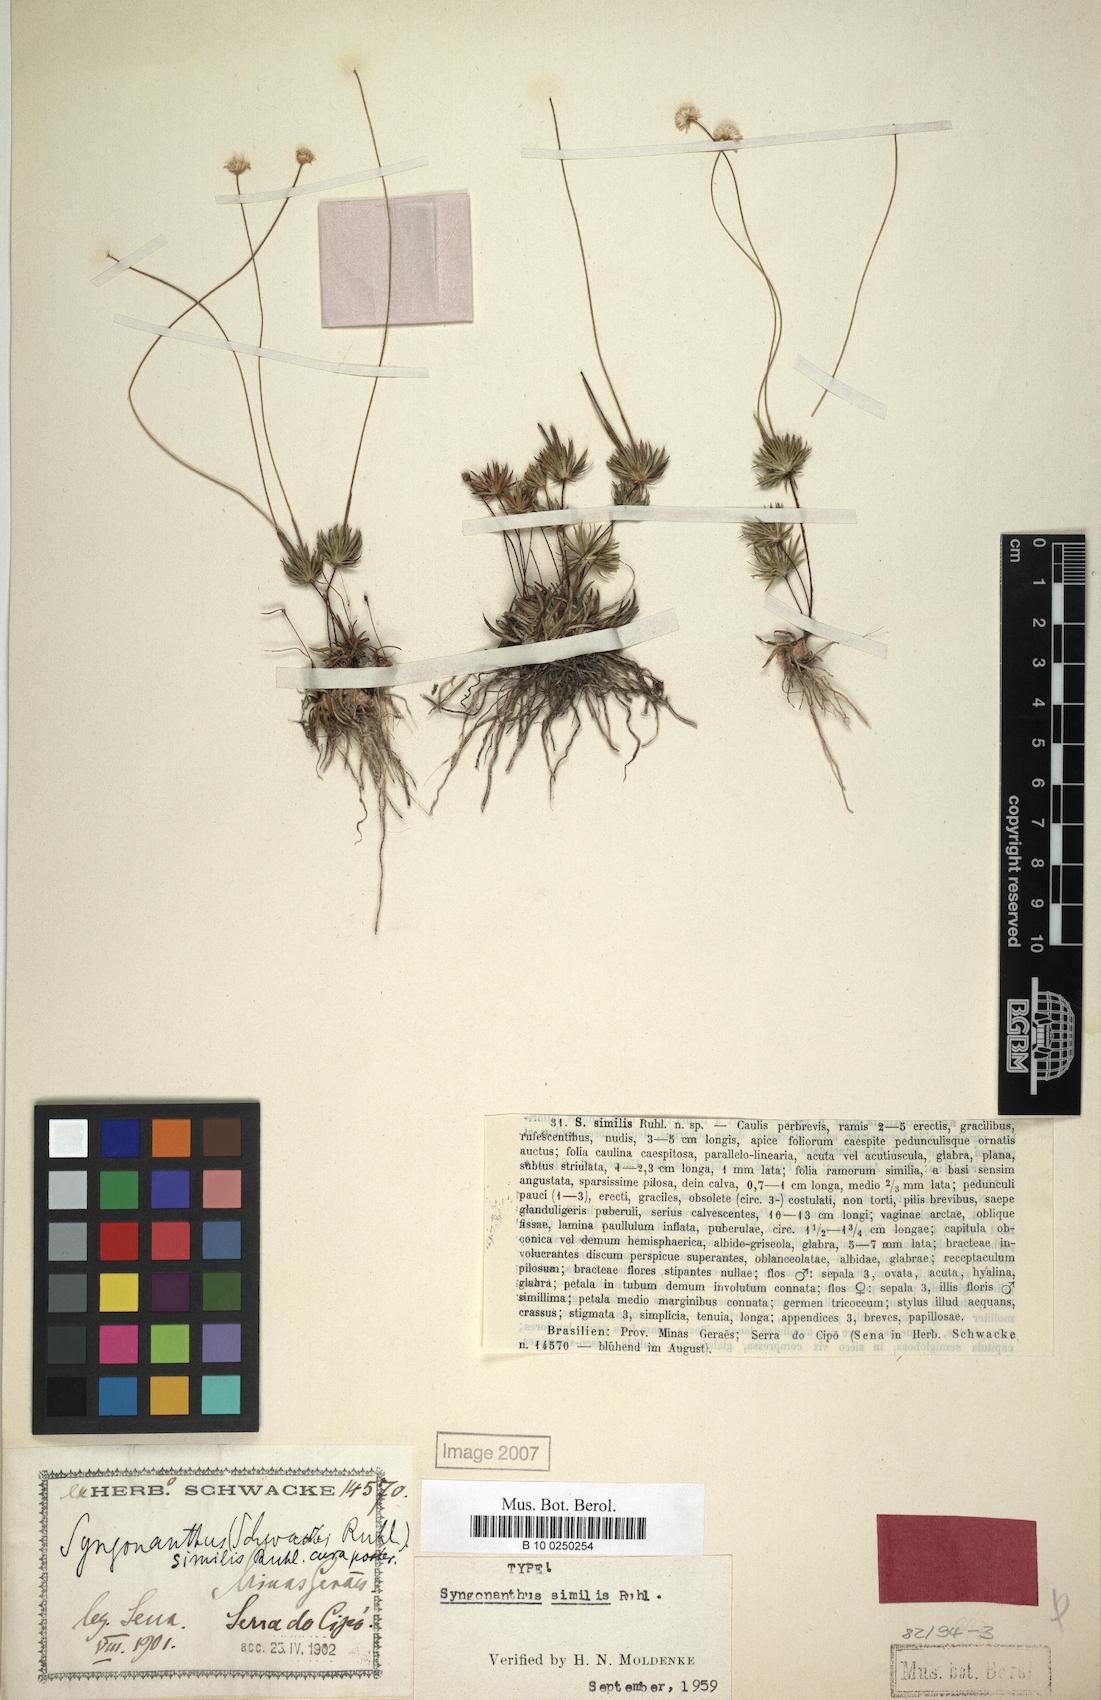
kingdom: Plantae
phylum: Tracheophyta
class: Liliopsida
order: Poales
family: Eriocaulaceae
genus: Syngonanthus
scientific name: Syngonanthus anthemidiflorus
